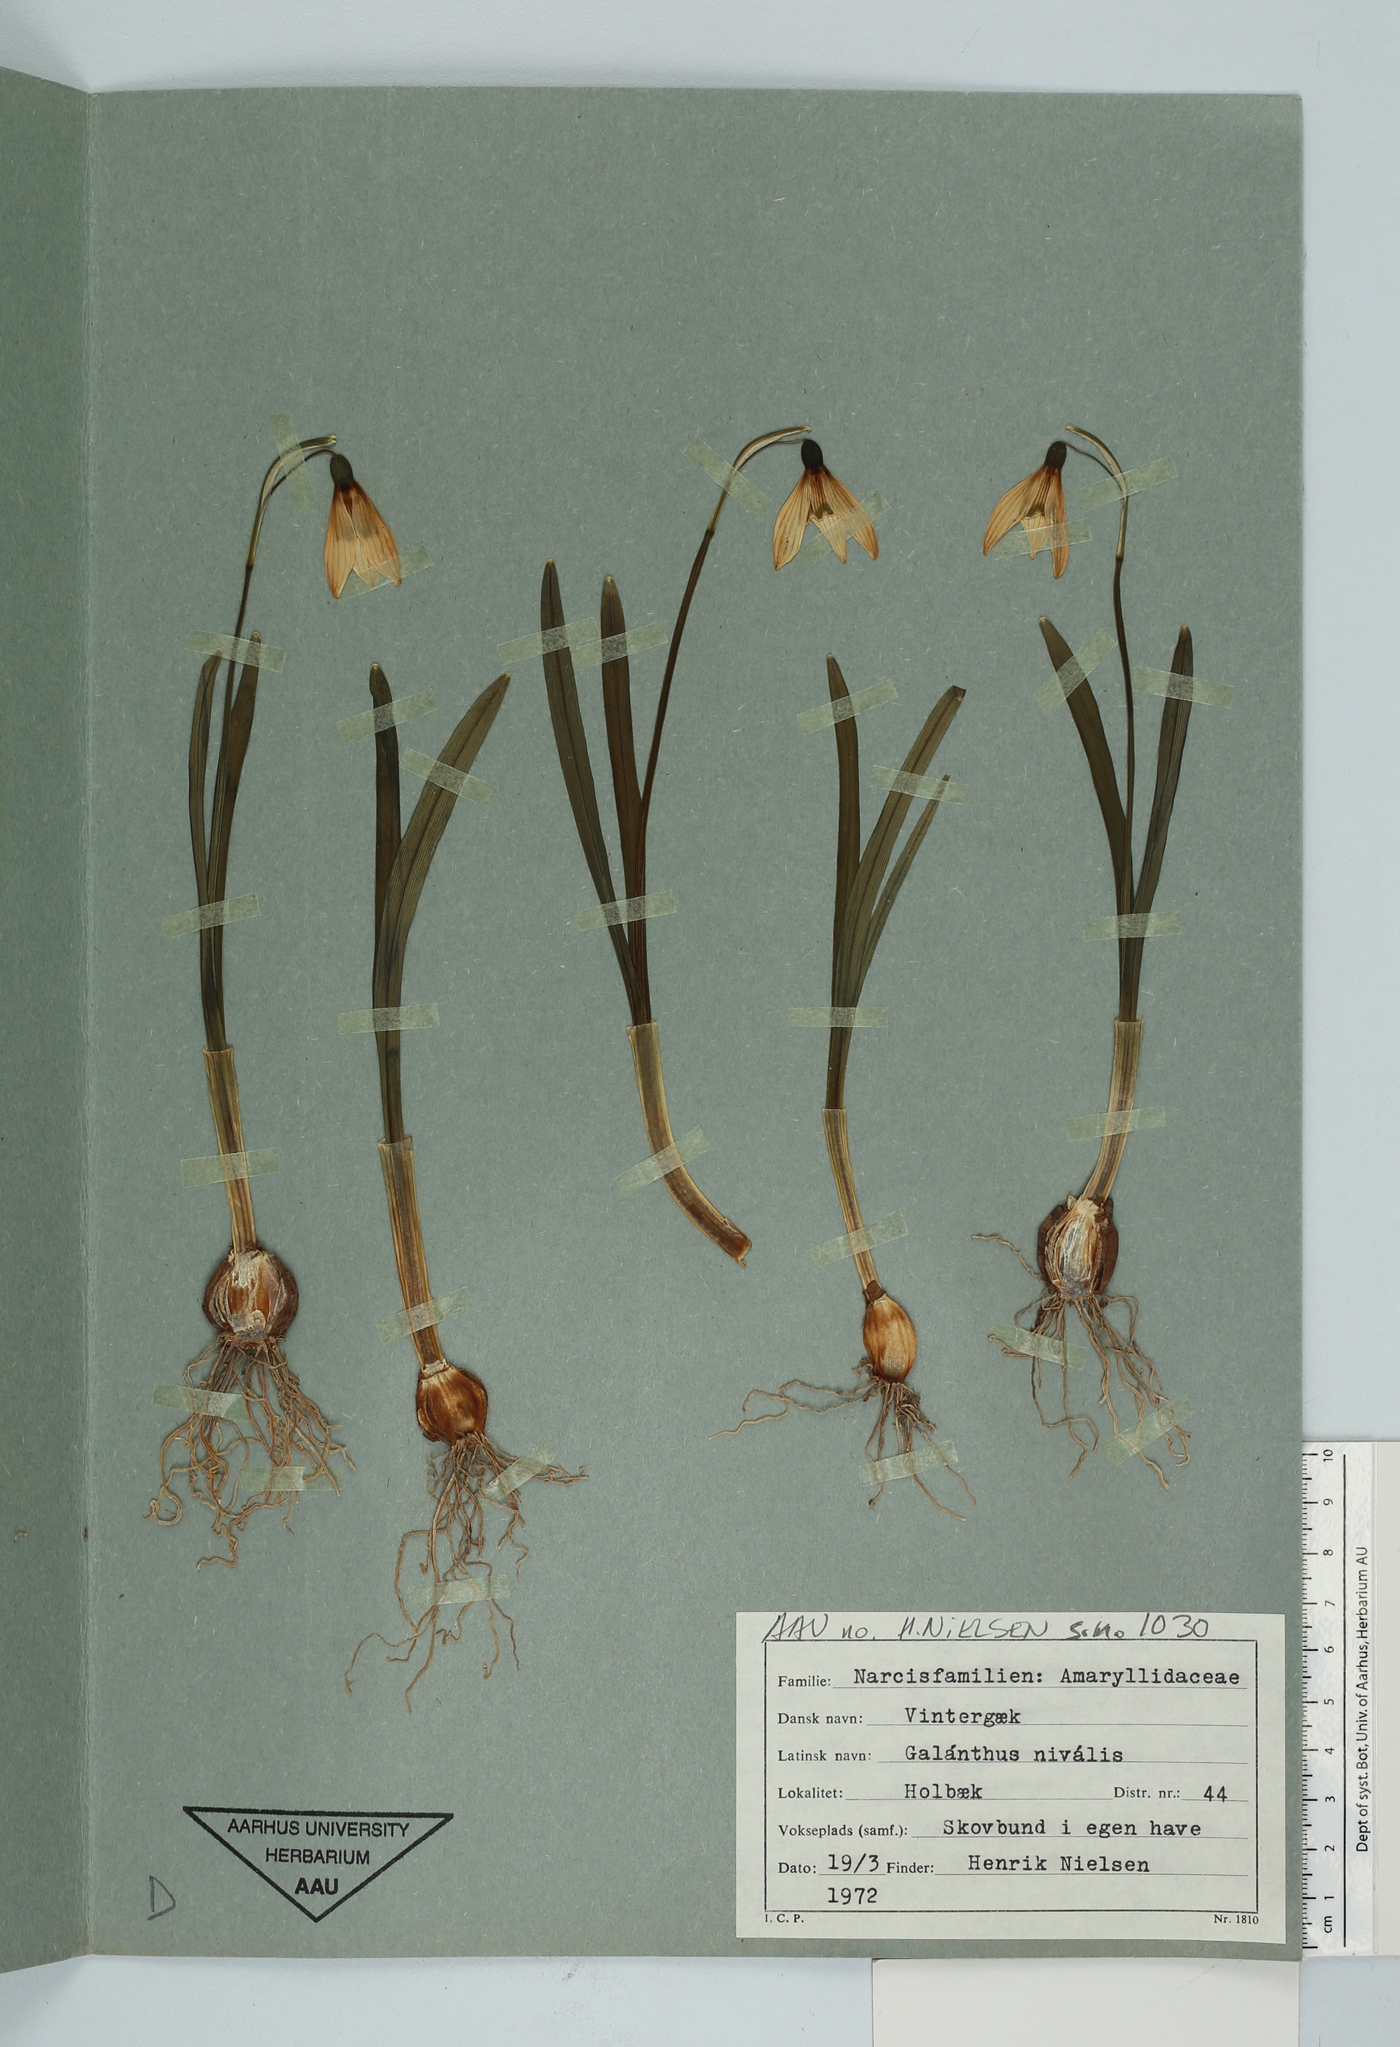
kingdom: Plantae
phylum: Tracheophyta
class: Liliopsida
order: Asparagales
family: Amaryllidaceae
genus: Galanthus
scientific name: Galanthus nivalis
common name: Snowdrop
